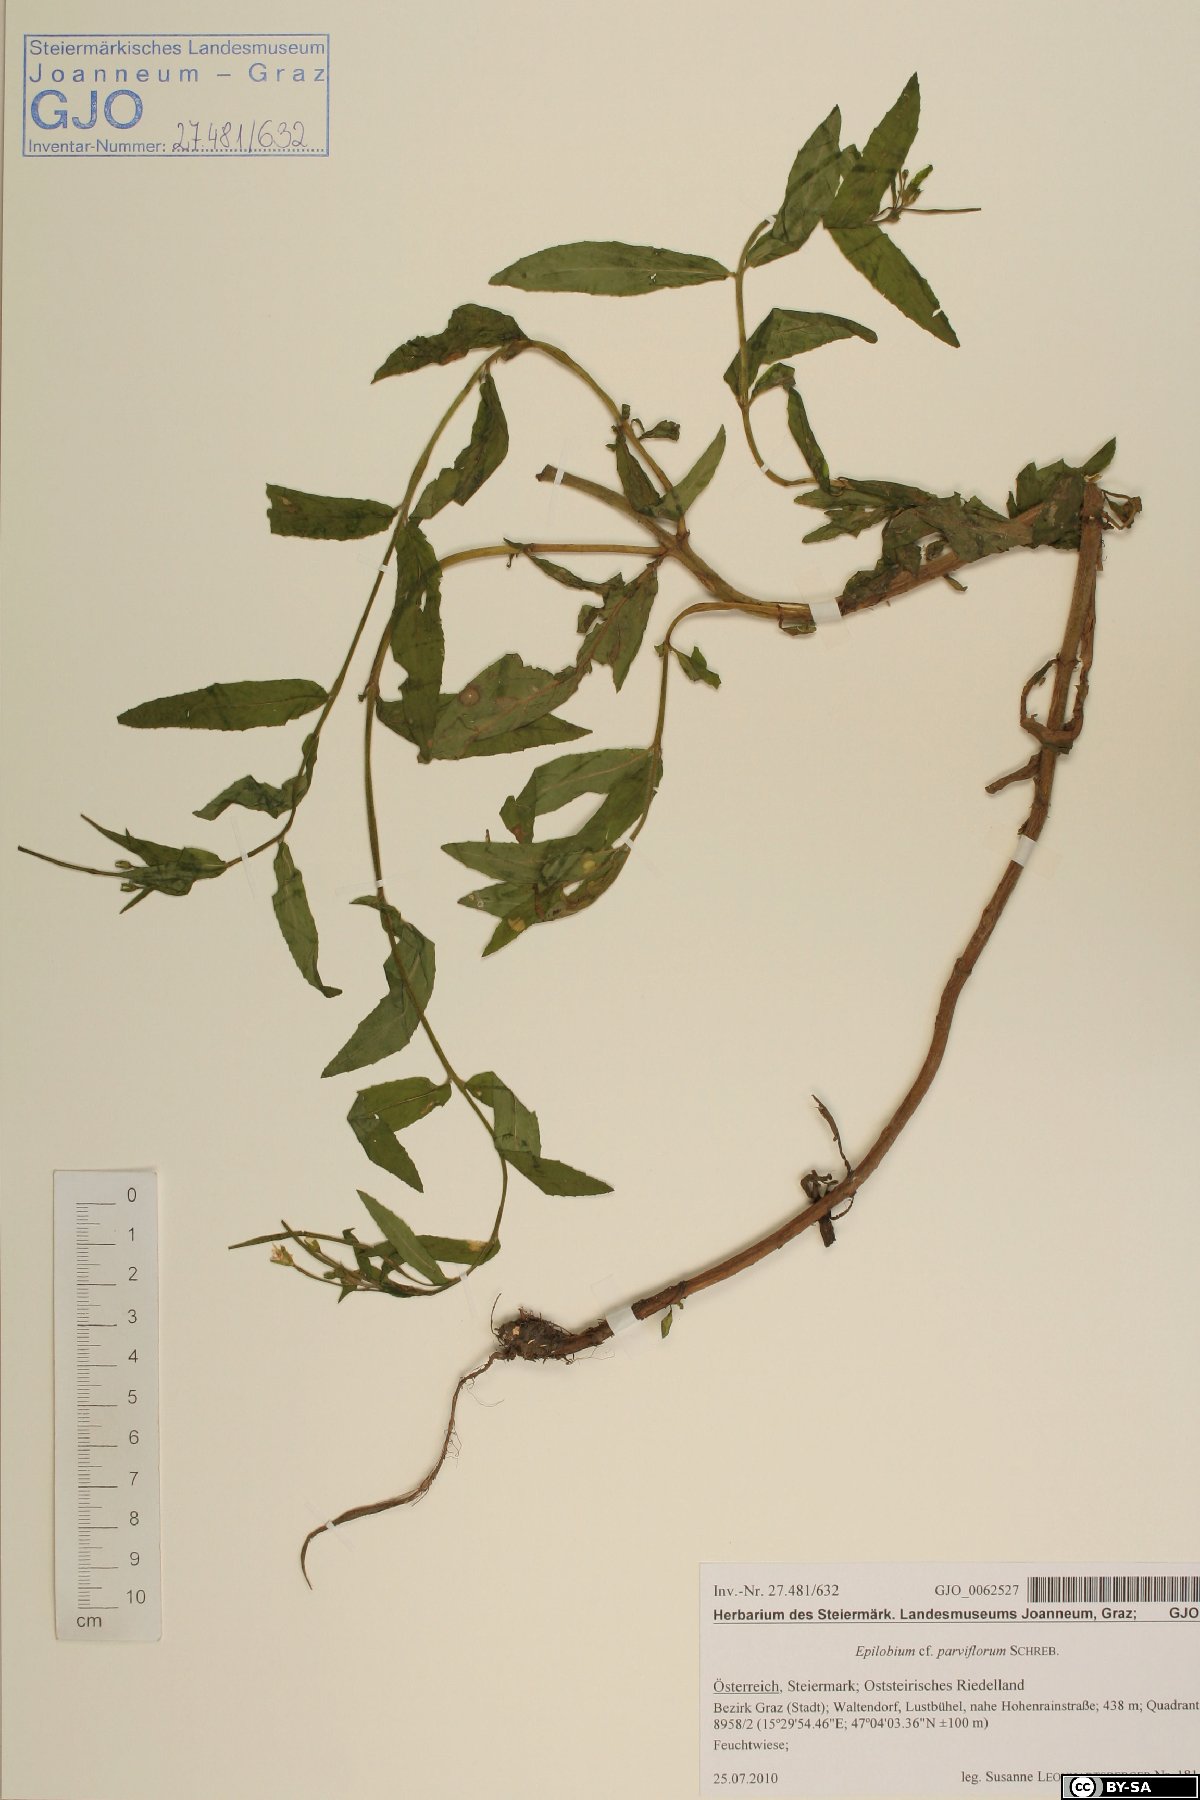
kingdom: Plantae
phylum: Tracheophyta
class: Magnoliopsida
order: Myrtales
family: Onagraceae
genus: Epilobium
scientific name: Epilobium parviflorum
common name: Hoary willowherb
